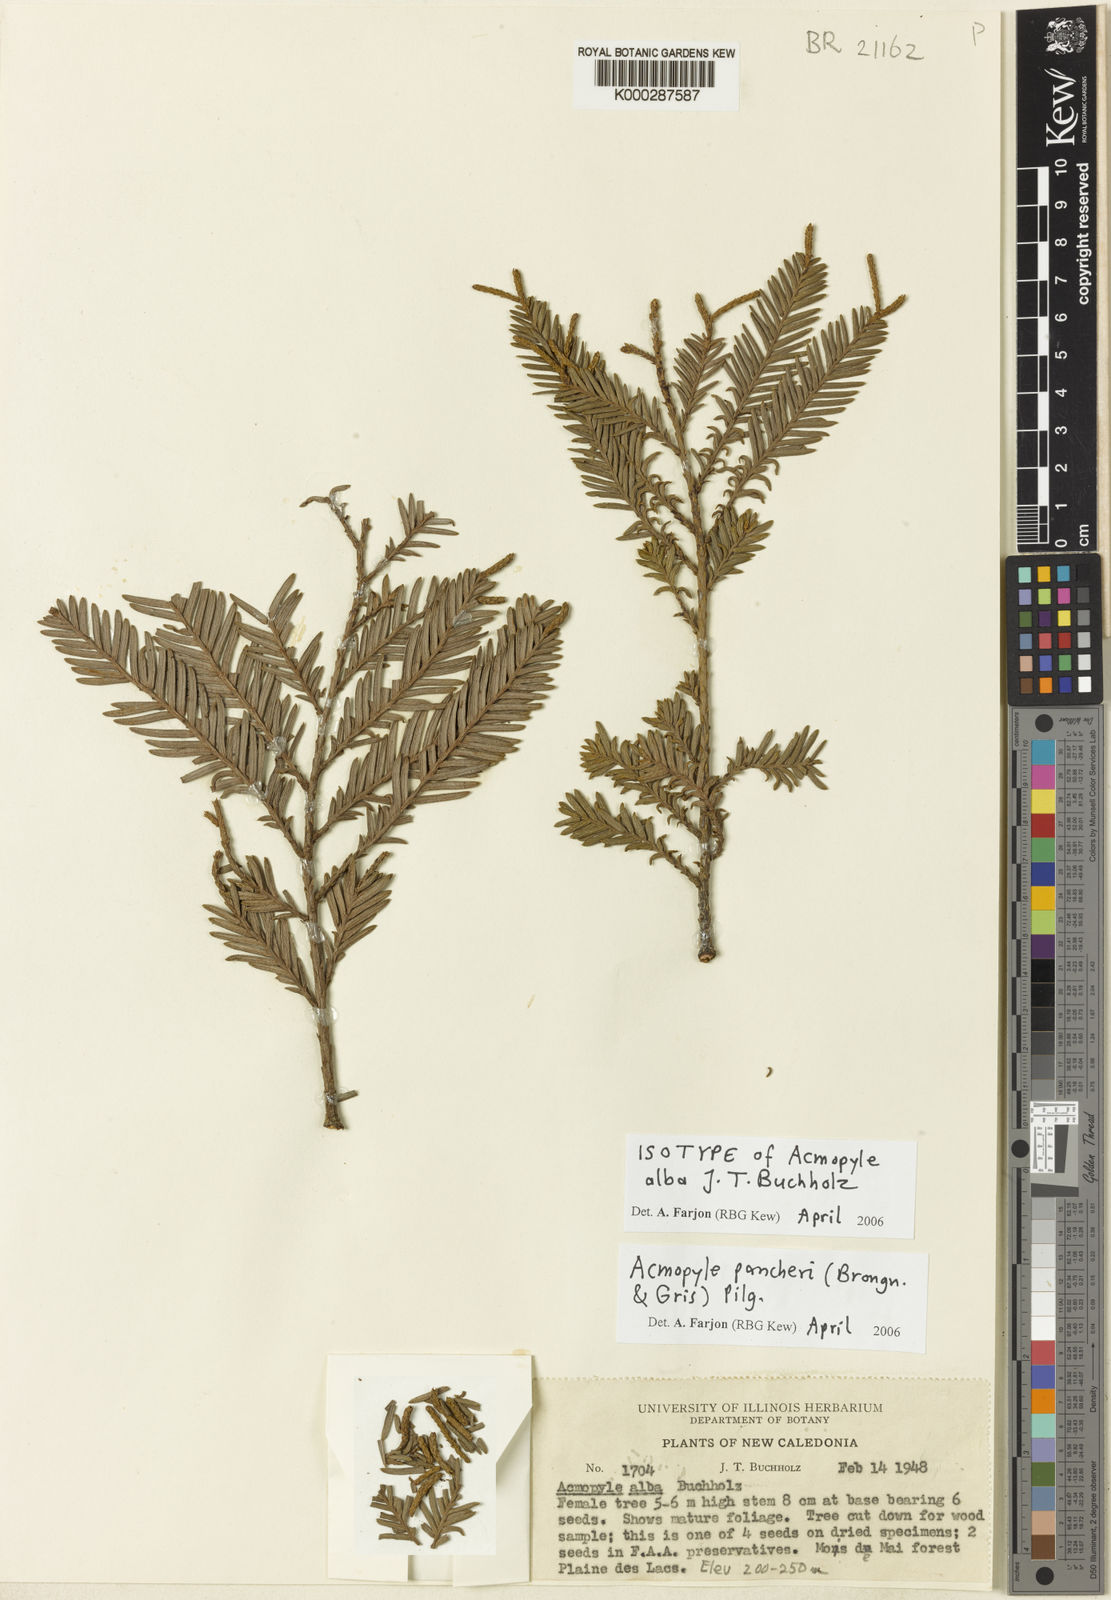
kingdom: Plantae
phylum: Tracheophyta
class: Pinopsida
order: Pinales
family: Podocarpaceae
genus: Acmopyle
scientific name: Acmopyle pancheri
